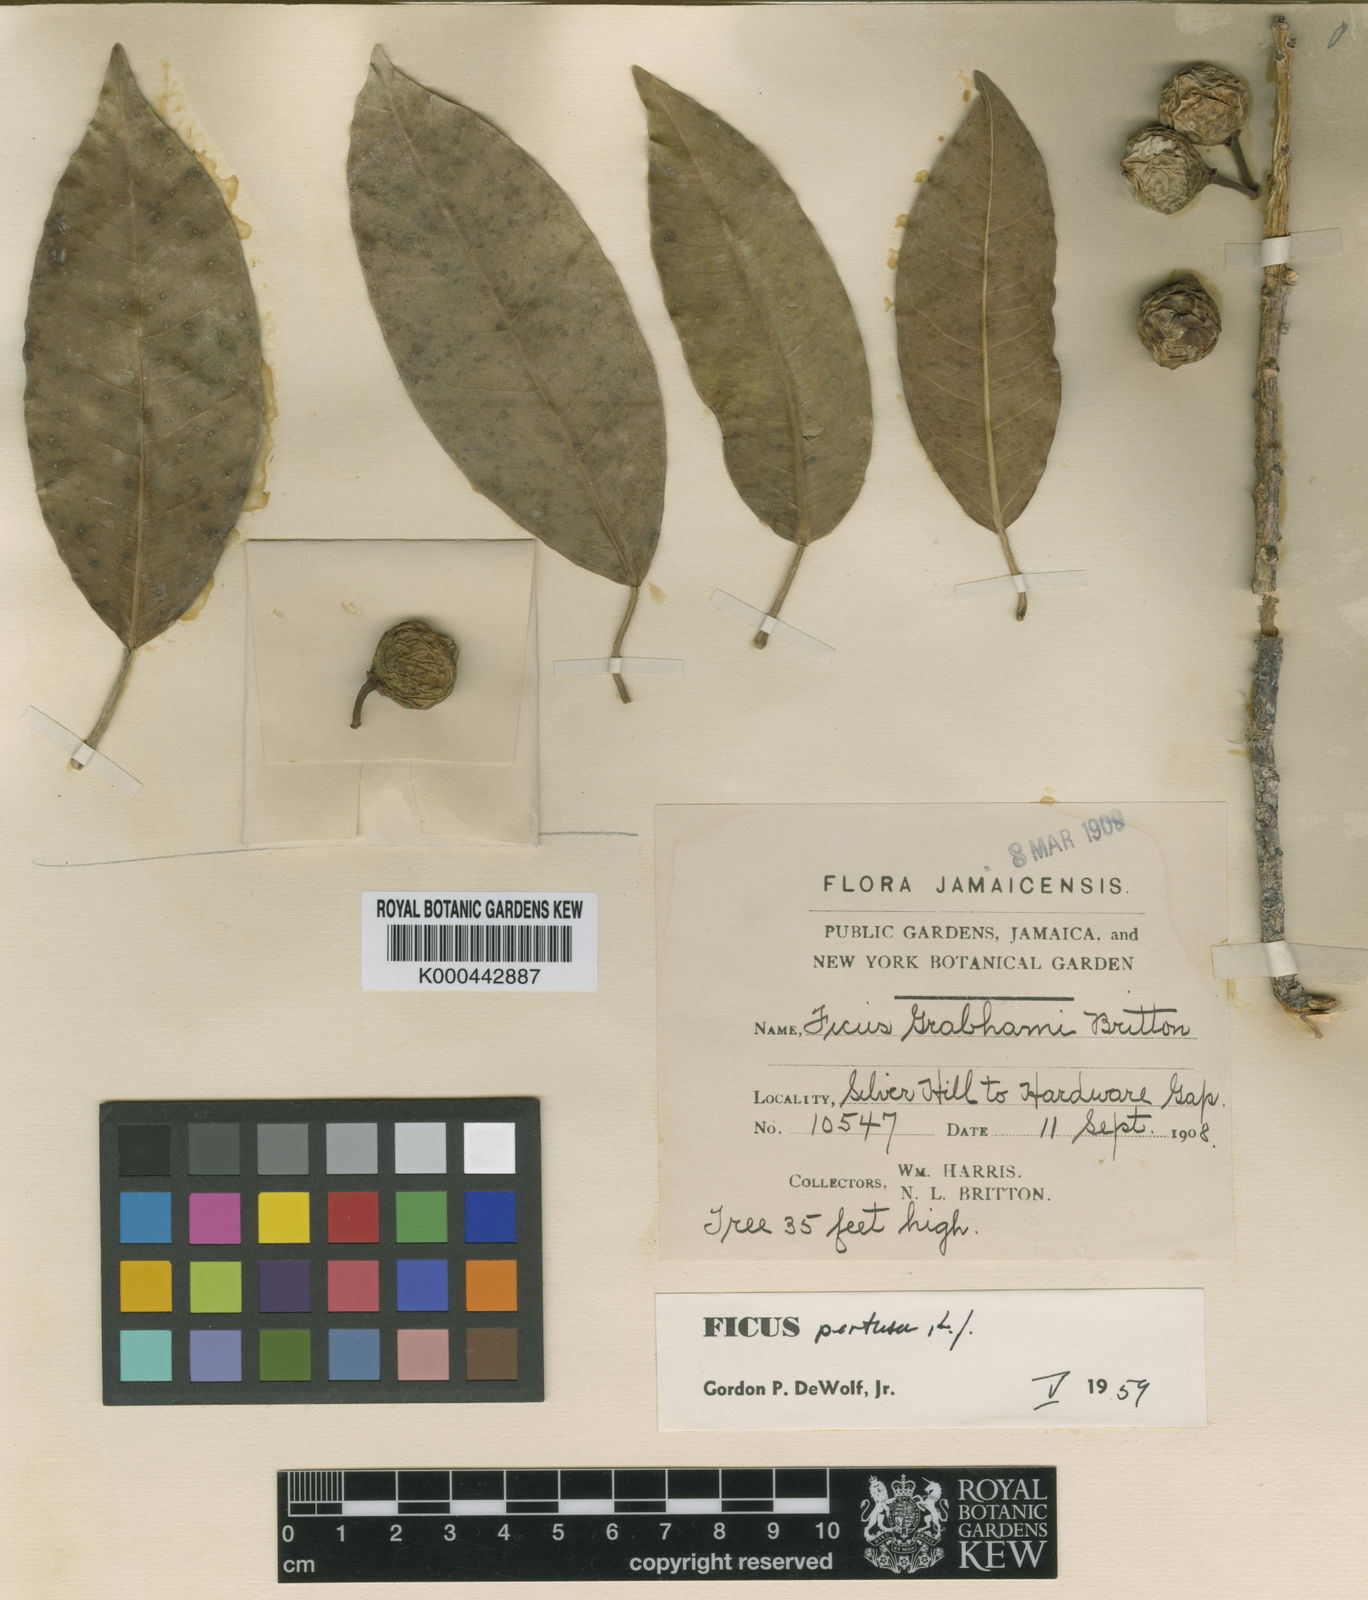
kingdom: Plantae
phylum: Tracheophyta
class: Magnoliopsida
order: Rosales
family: Moraceae
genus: Ficus
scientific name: Ficus pertusa
